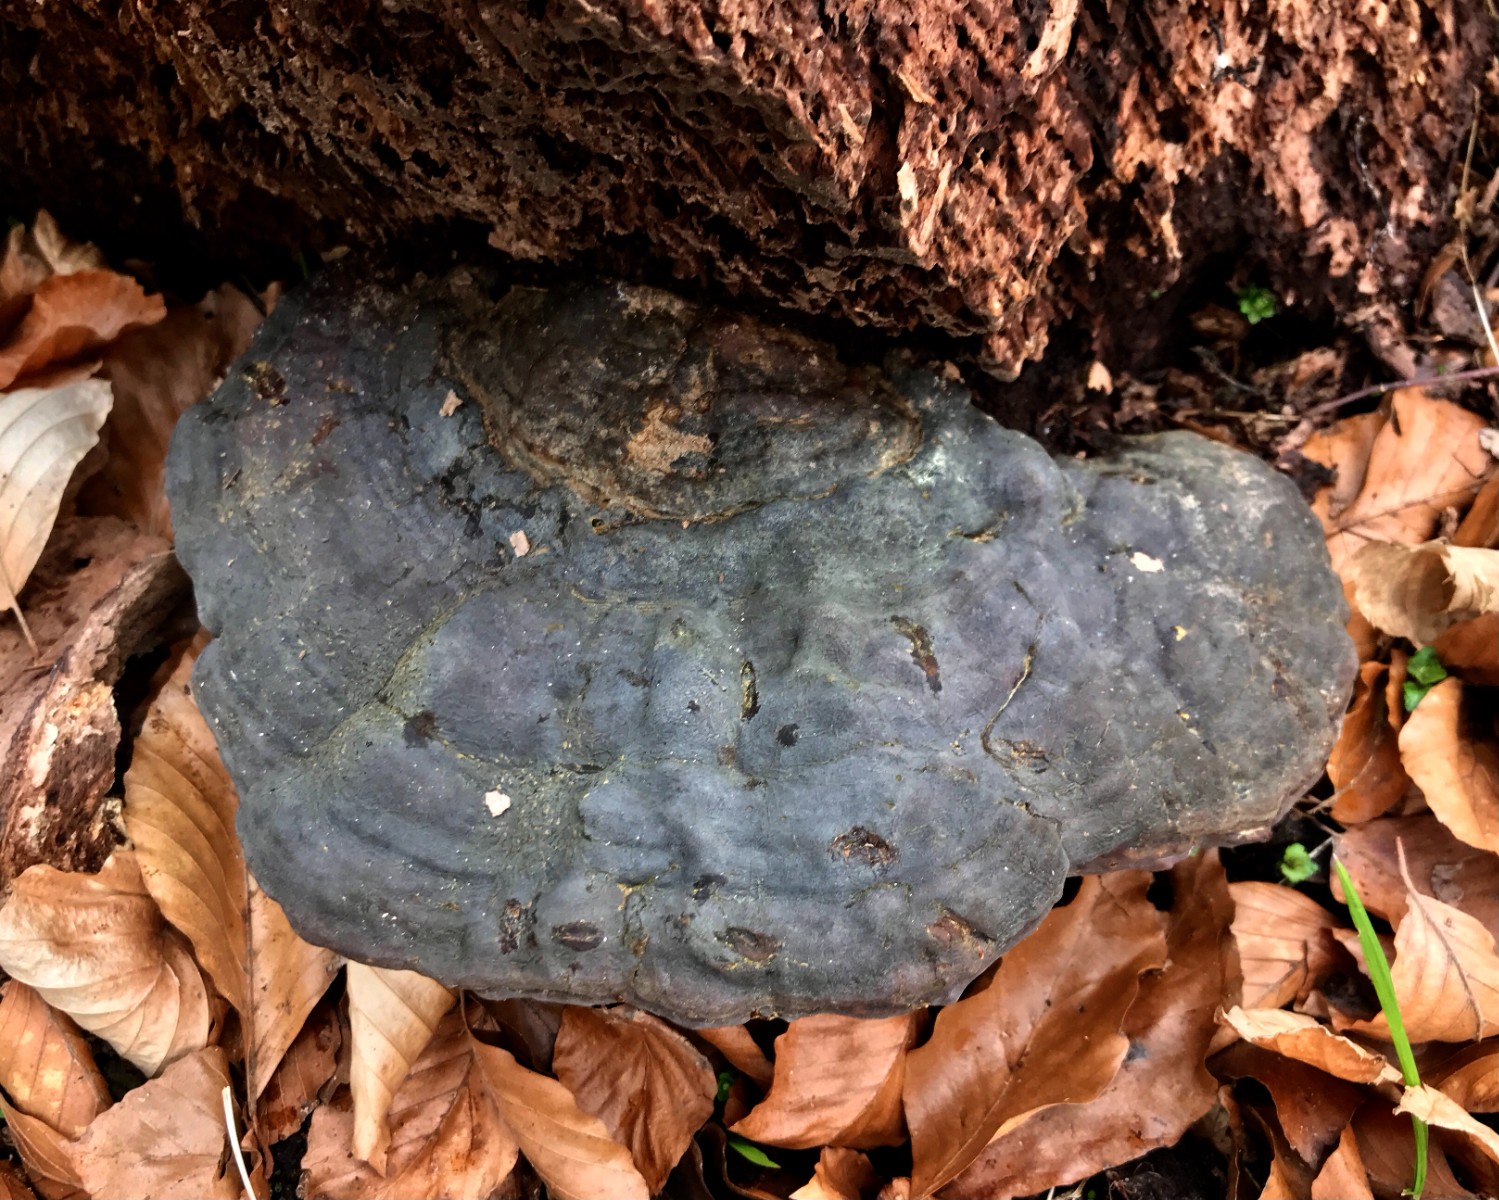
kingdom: Fungi
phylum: Basidiomycota
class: Agaricomycetes
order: Polyporales
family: Polyporaceae
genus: Ganoderma
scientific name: Ganoderma pfeifferi
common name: kobberrød lakporesvamp
